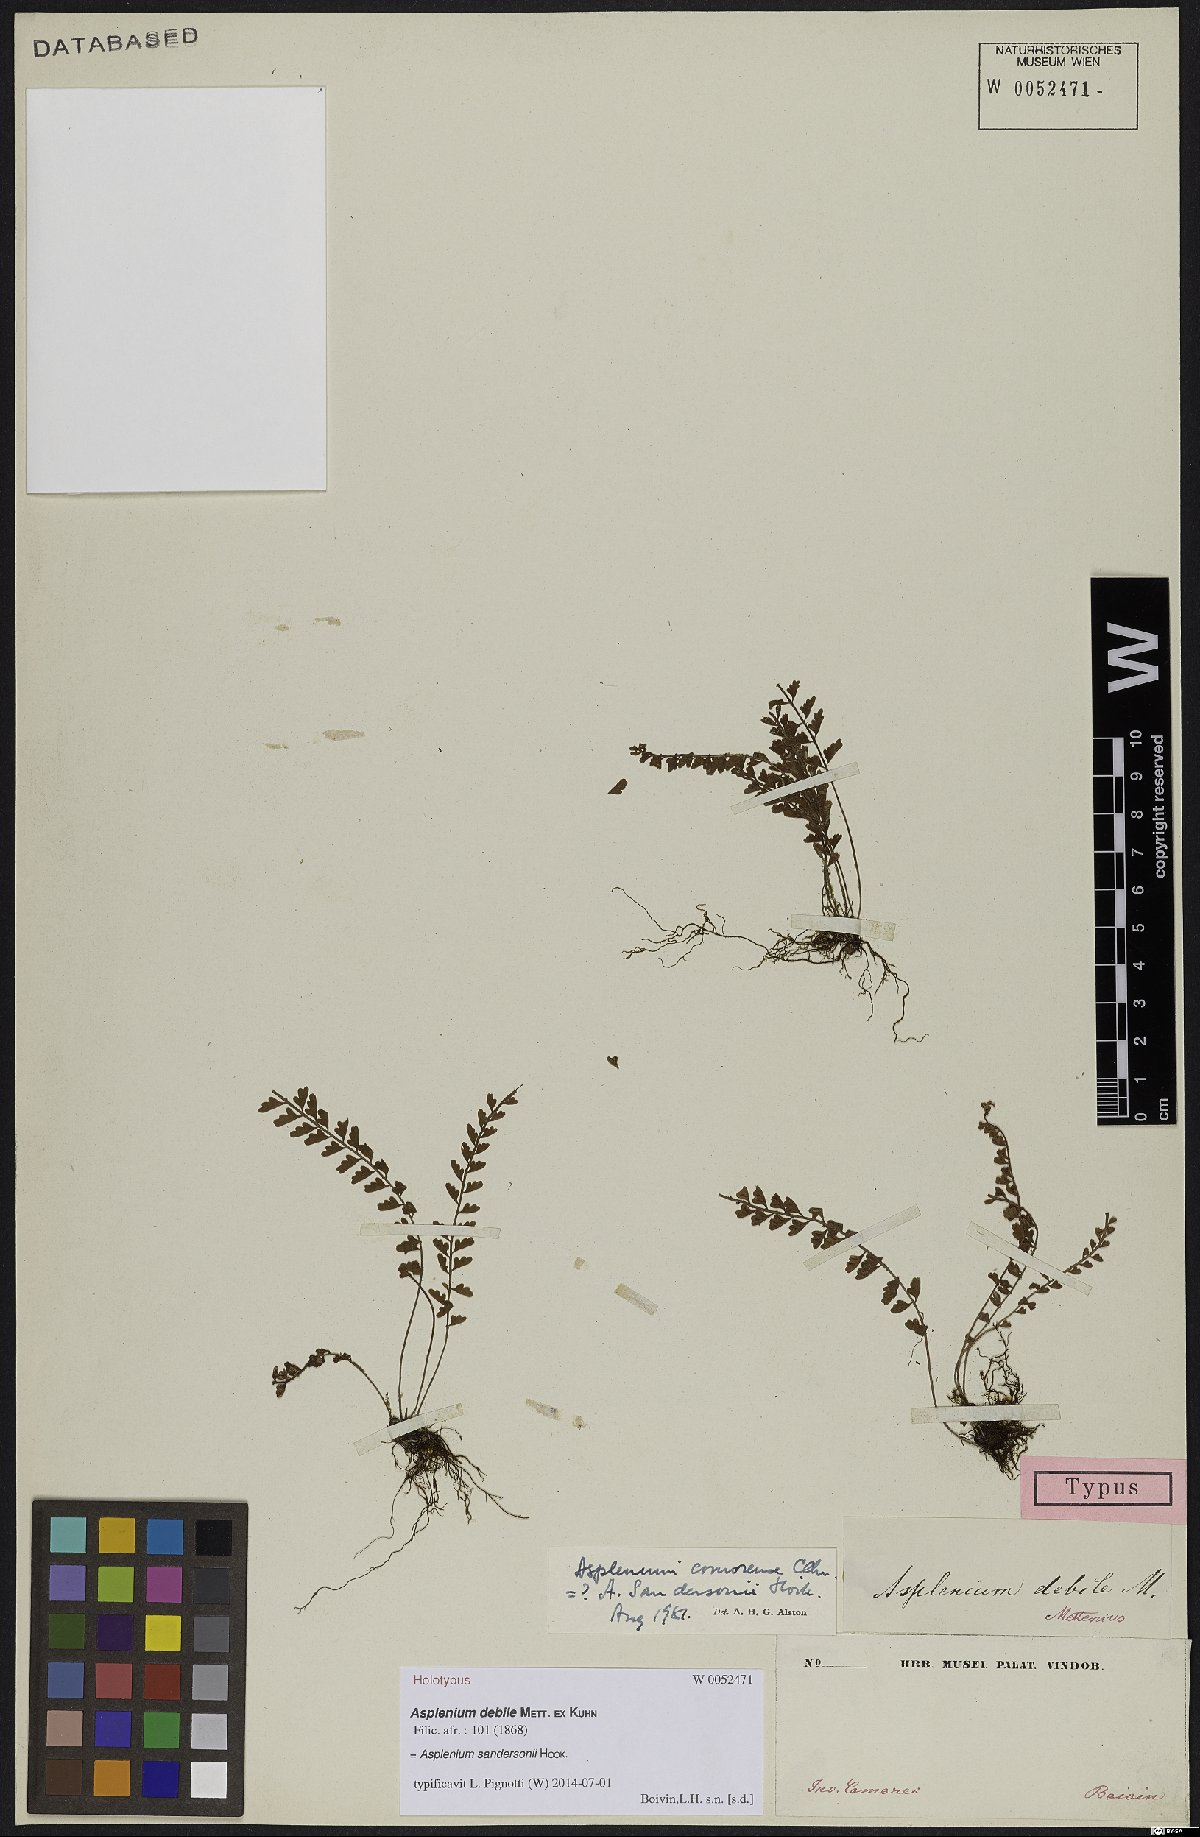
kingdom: Plantae
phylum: Tracheophyta
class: Polypodiopsida
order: Polypodiales
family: Aspleniaceae
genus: Asplenium
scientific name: Asplenium sandersonii
